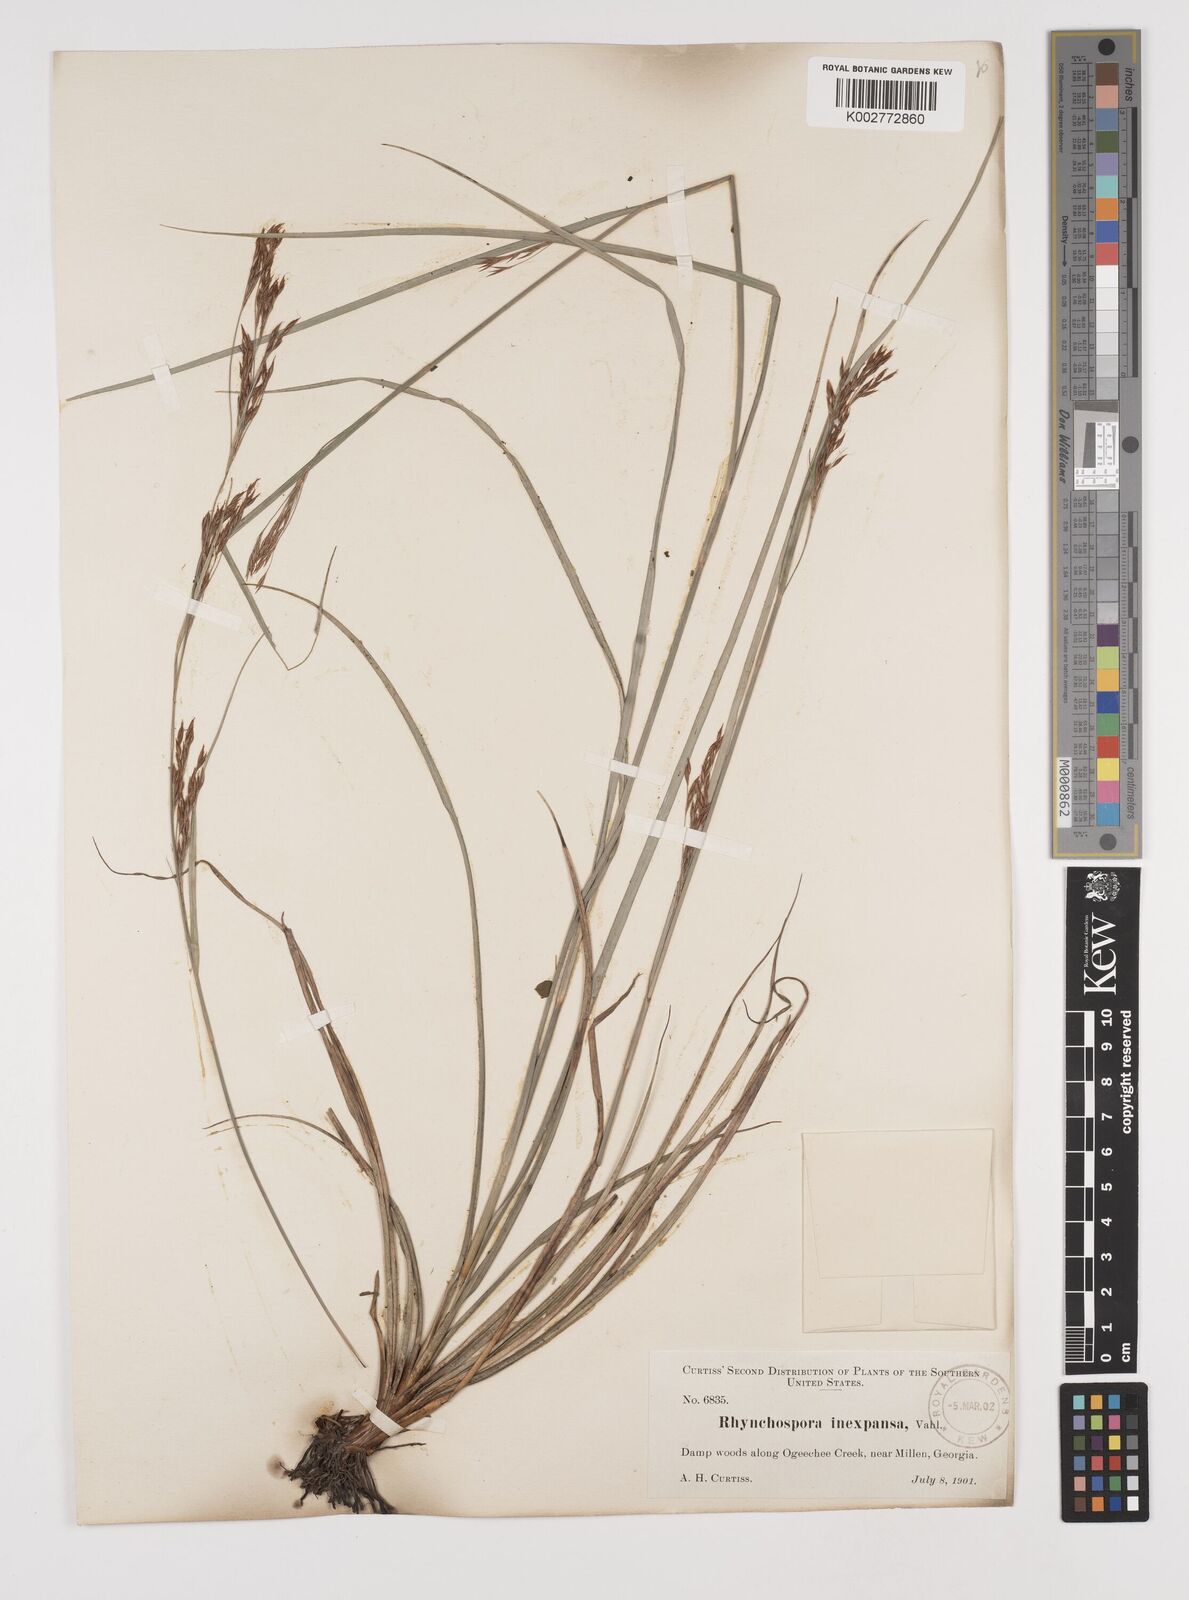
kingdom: Plantae
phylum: Tracheophyta
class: Liliopsida
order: Poales
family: Cyperaceae
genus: Rhynchospora
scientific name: Rhynchospora inexpansa
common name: Nodding beaksedge
